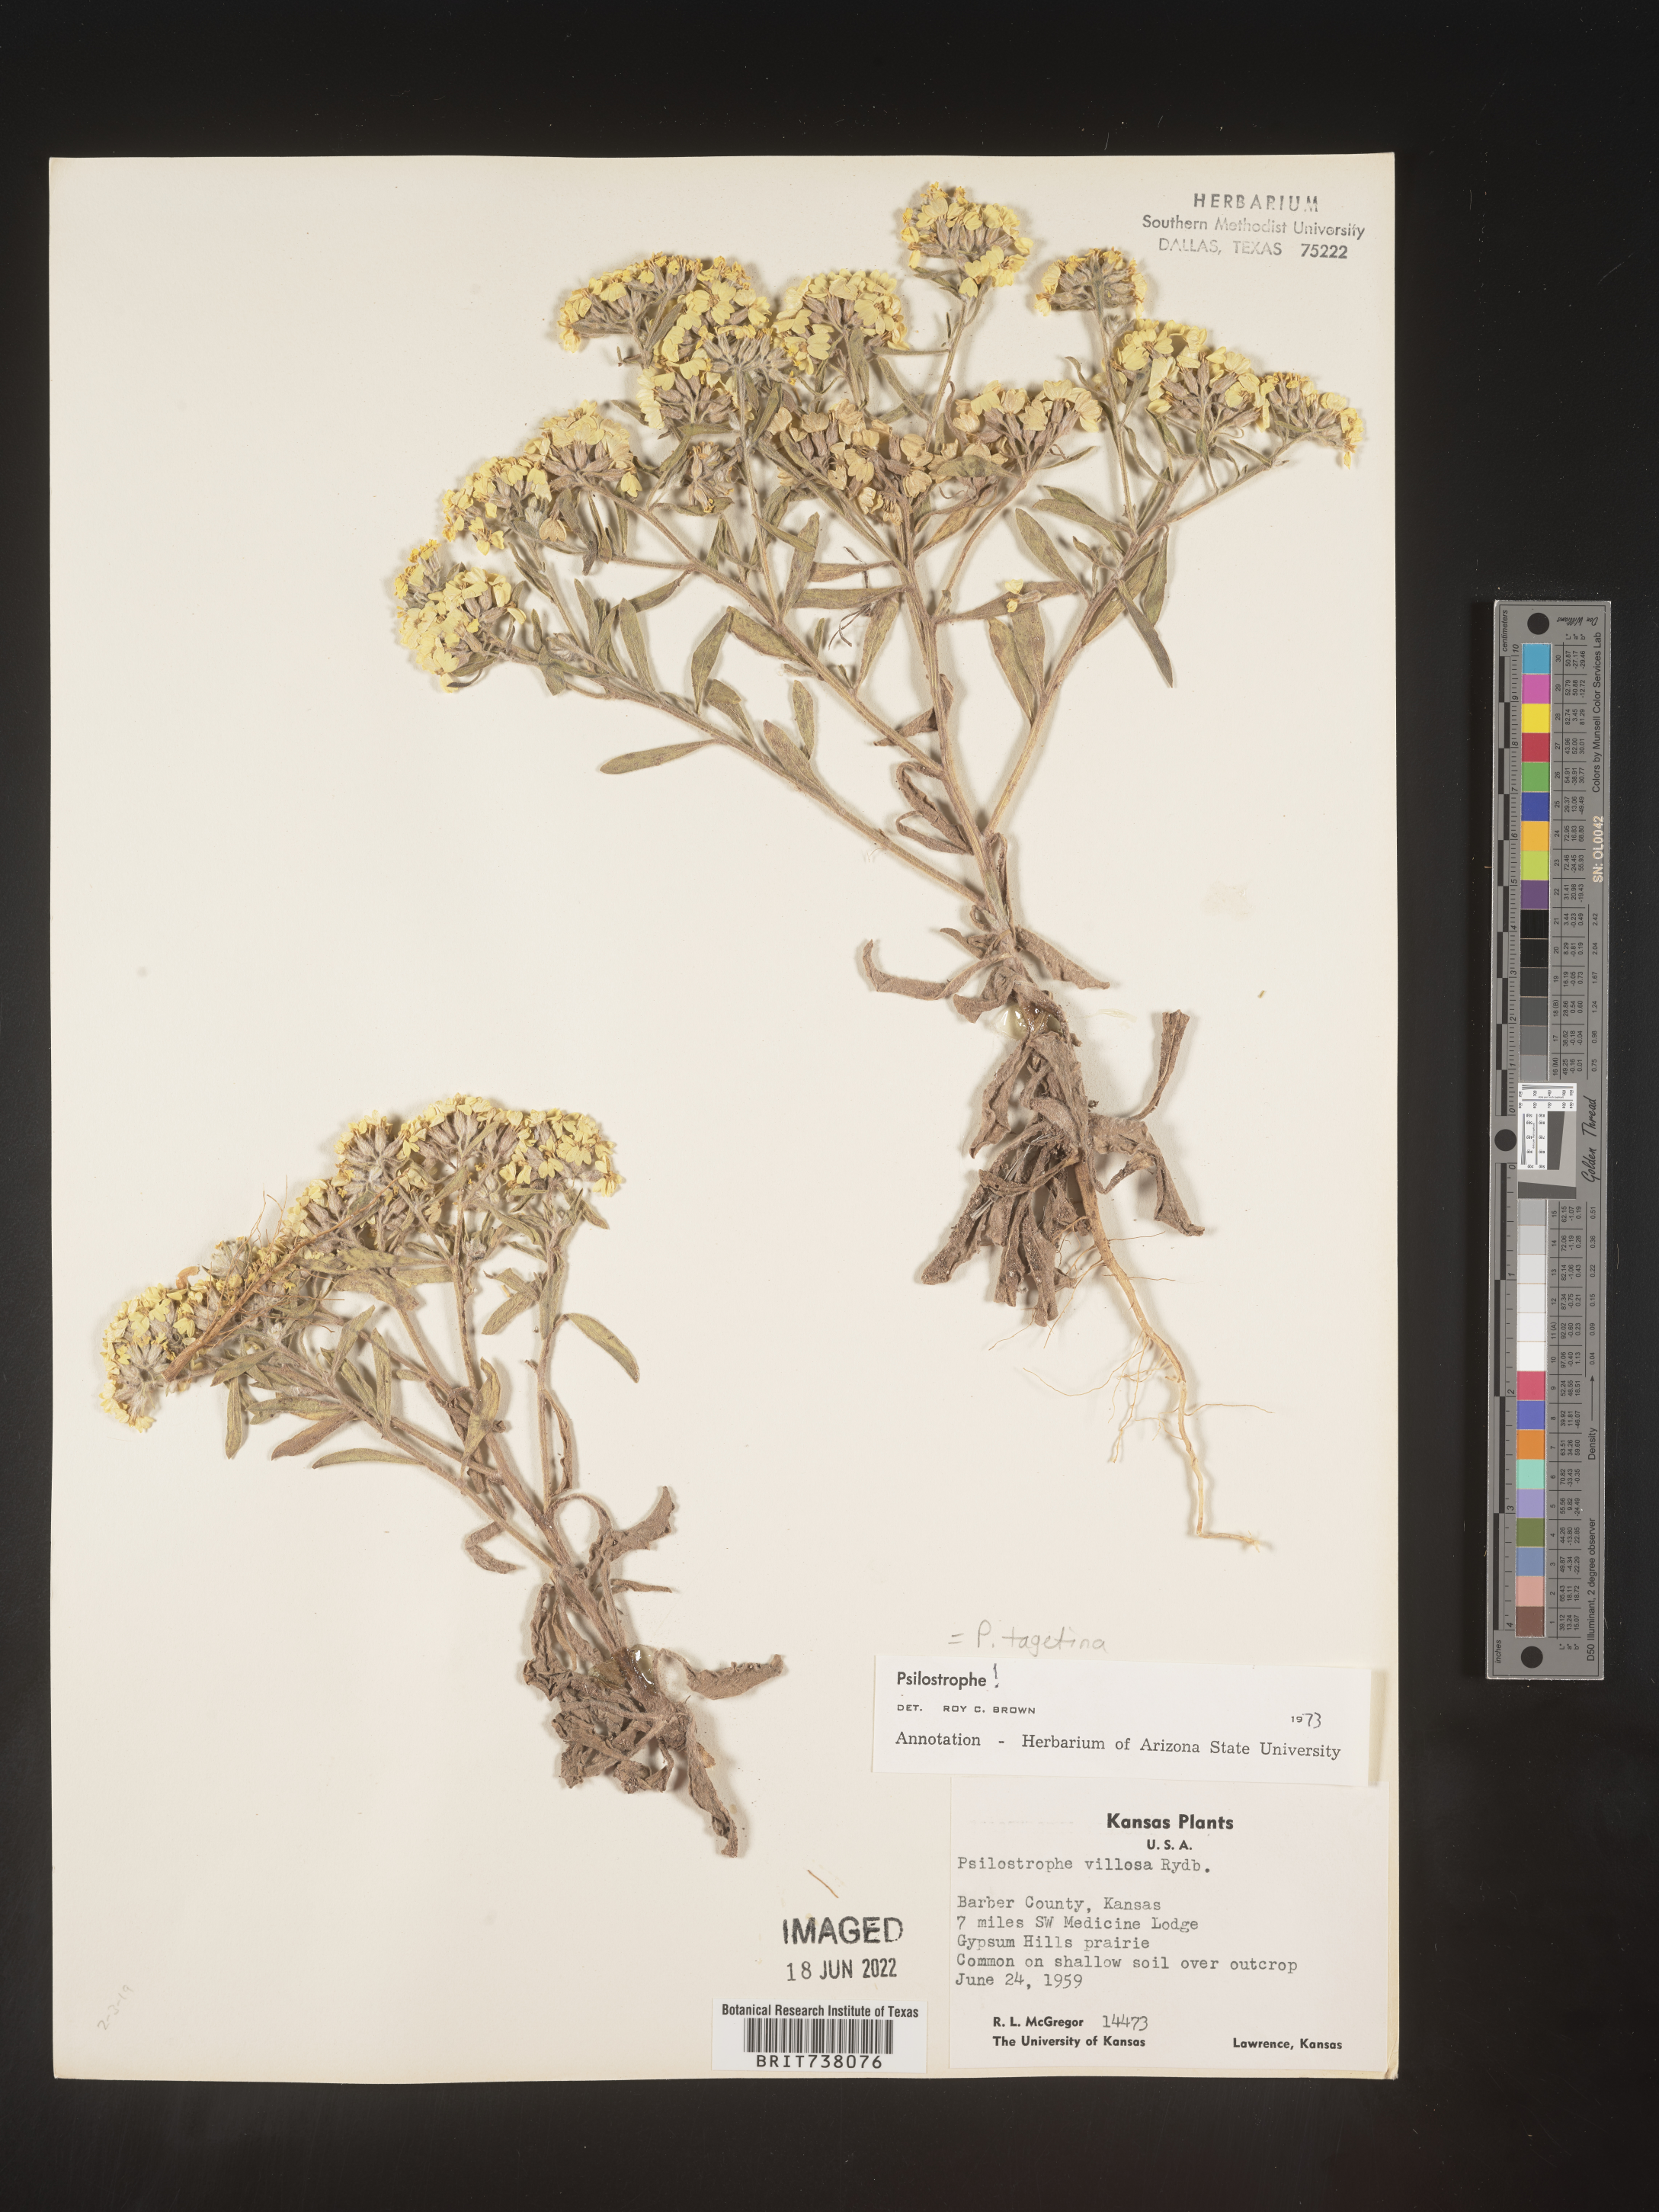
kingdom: Plantae
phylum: Tracheophyta
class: Magnoliopsida
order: Asterales
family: Asteraceae
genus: Psilostrophe
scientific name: Psilostrophe tagetina
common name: Marigold paper-flower
